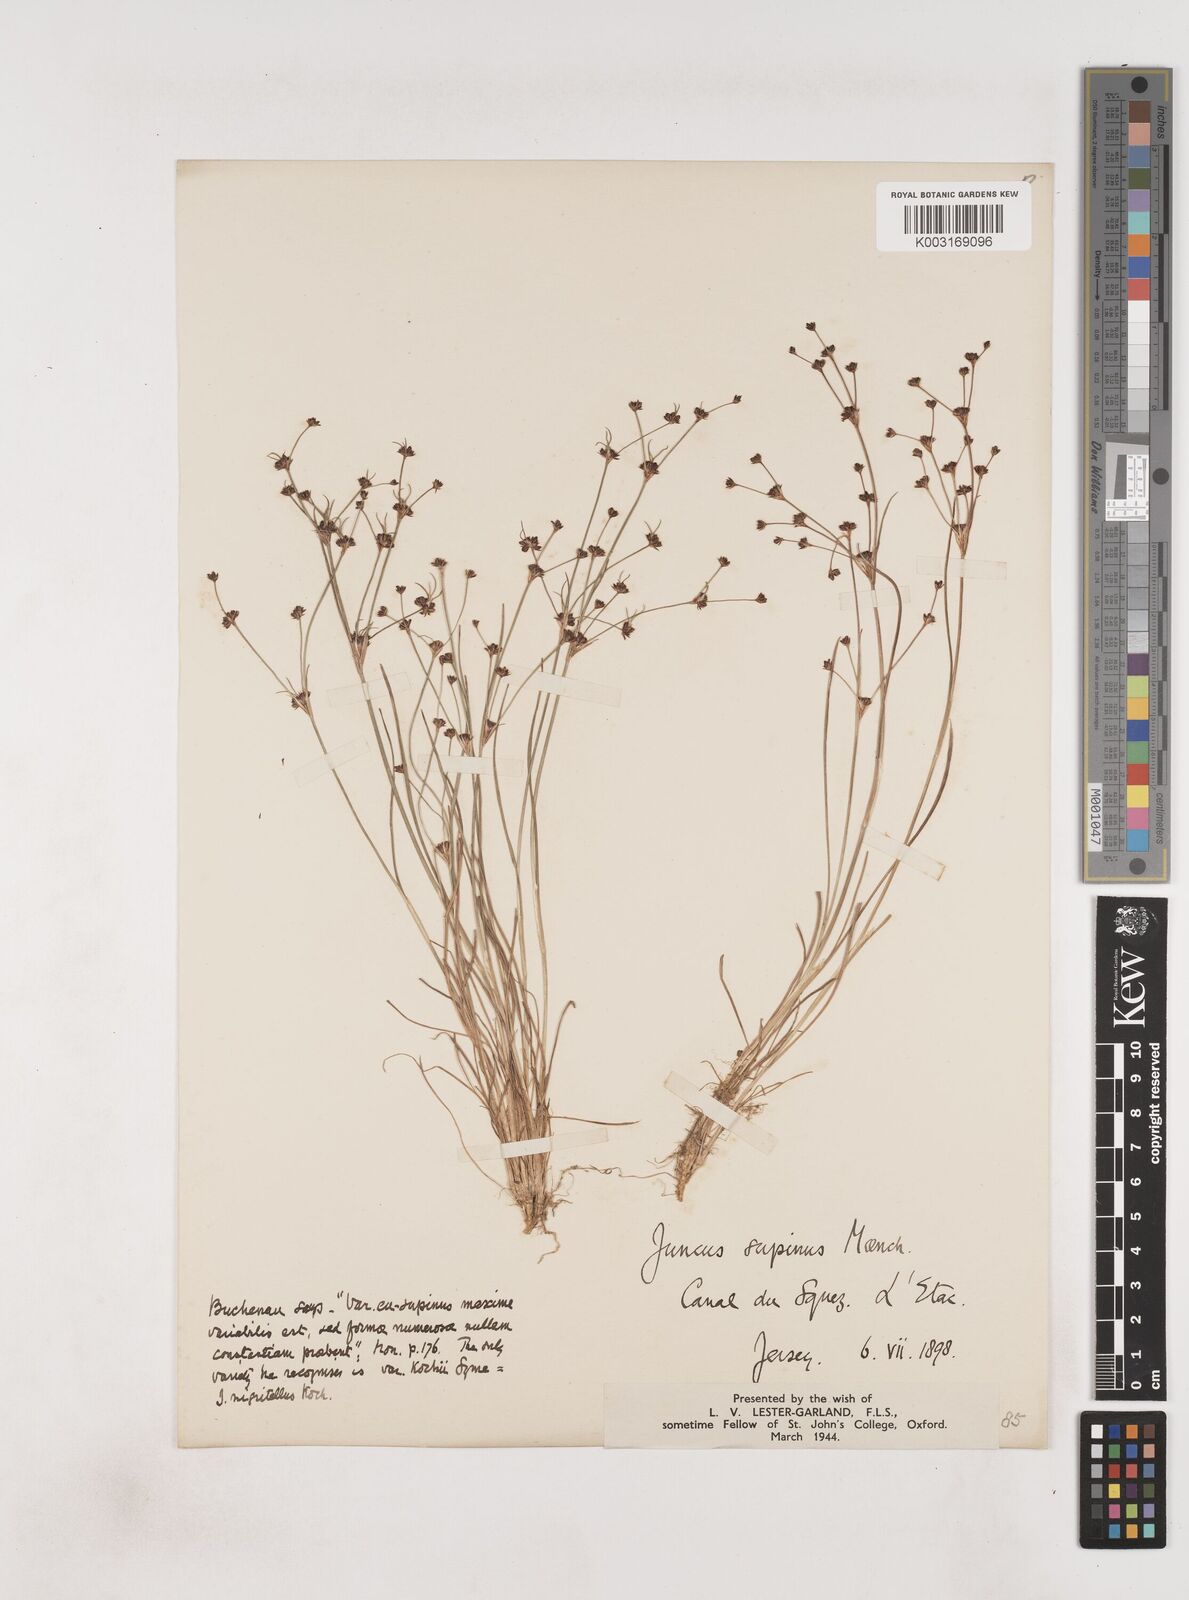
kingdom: Plantae
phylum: Tracheophyta
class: Liliopsida
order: Poales
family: Juncaceae
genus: Juncus
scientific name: Juncus bulbosus
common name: Bulbous rush
